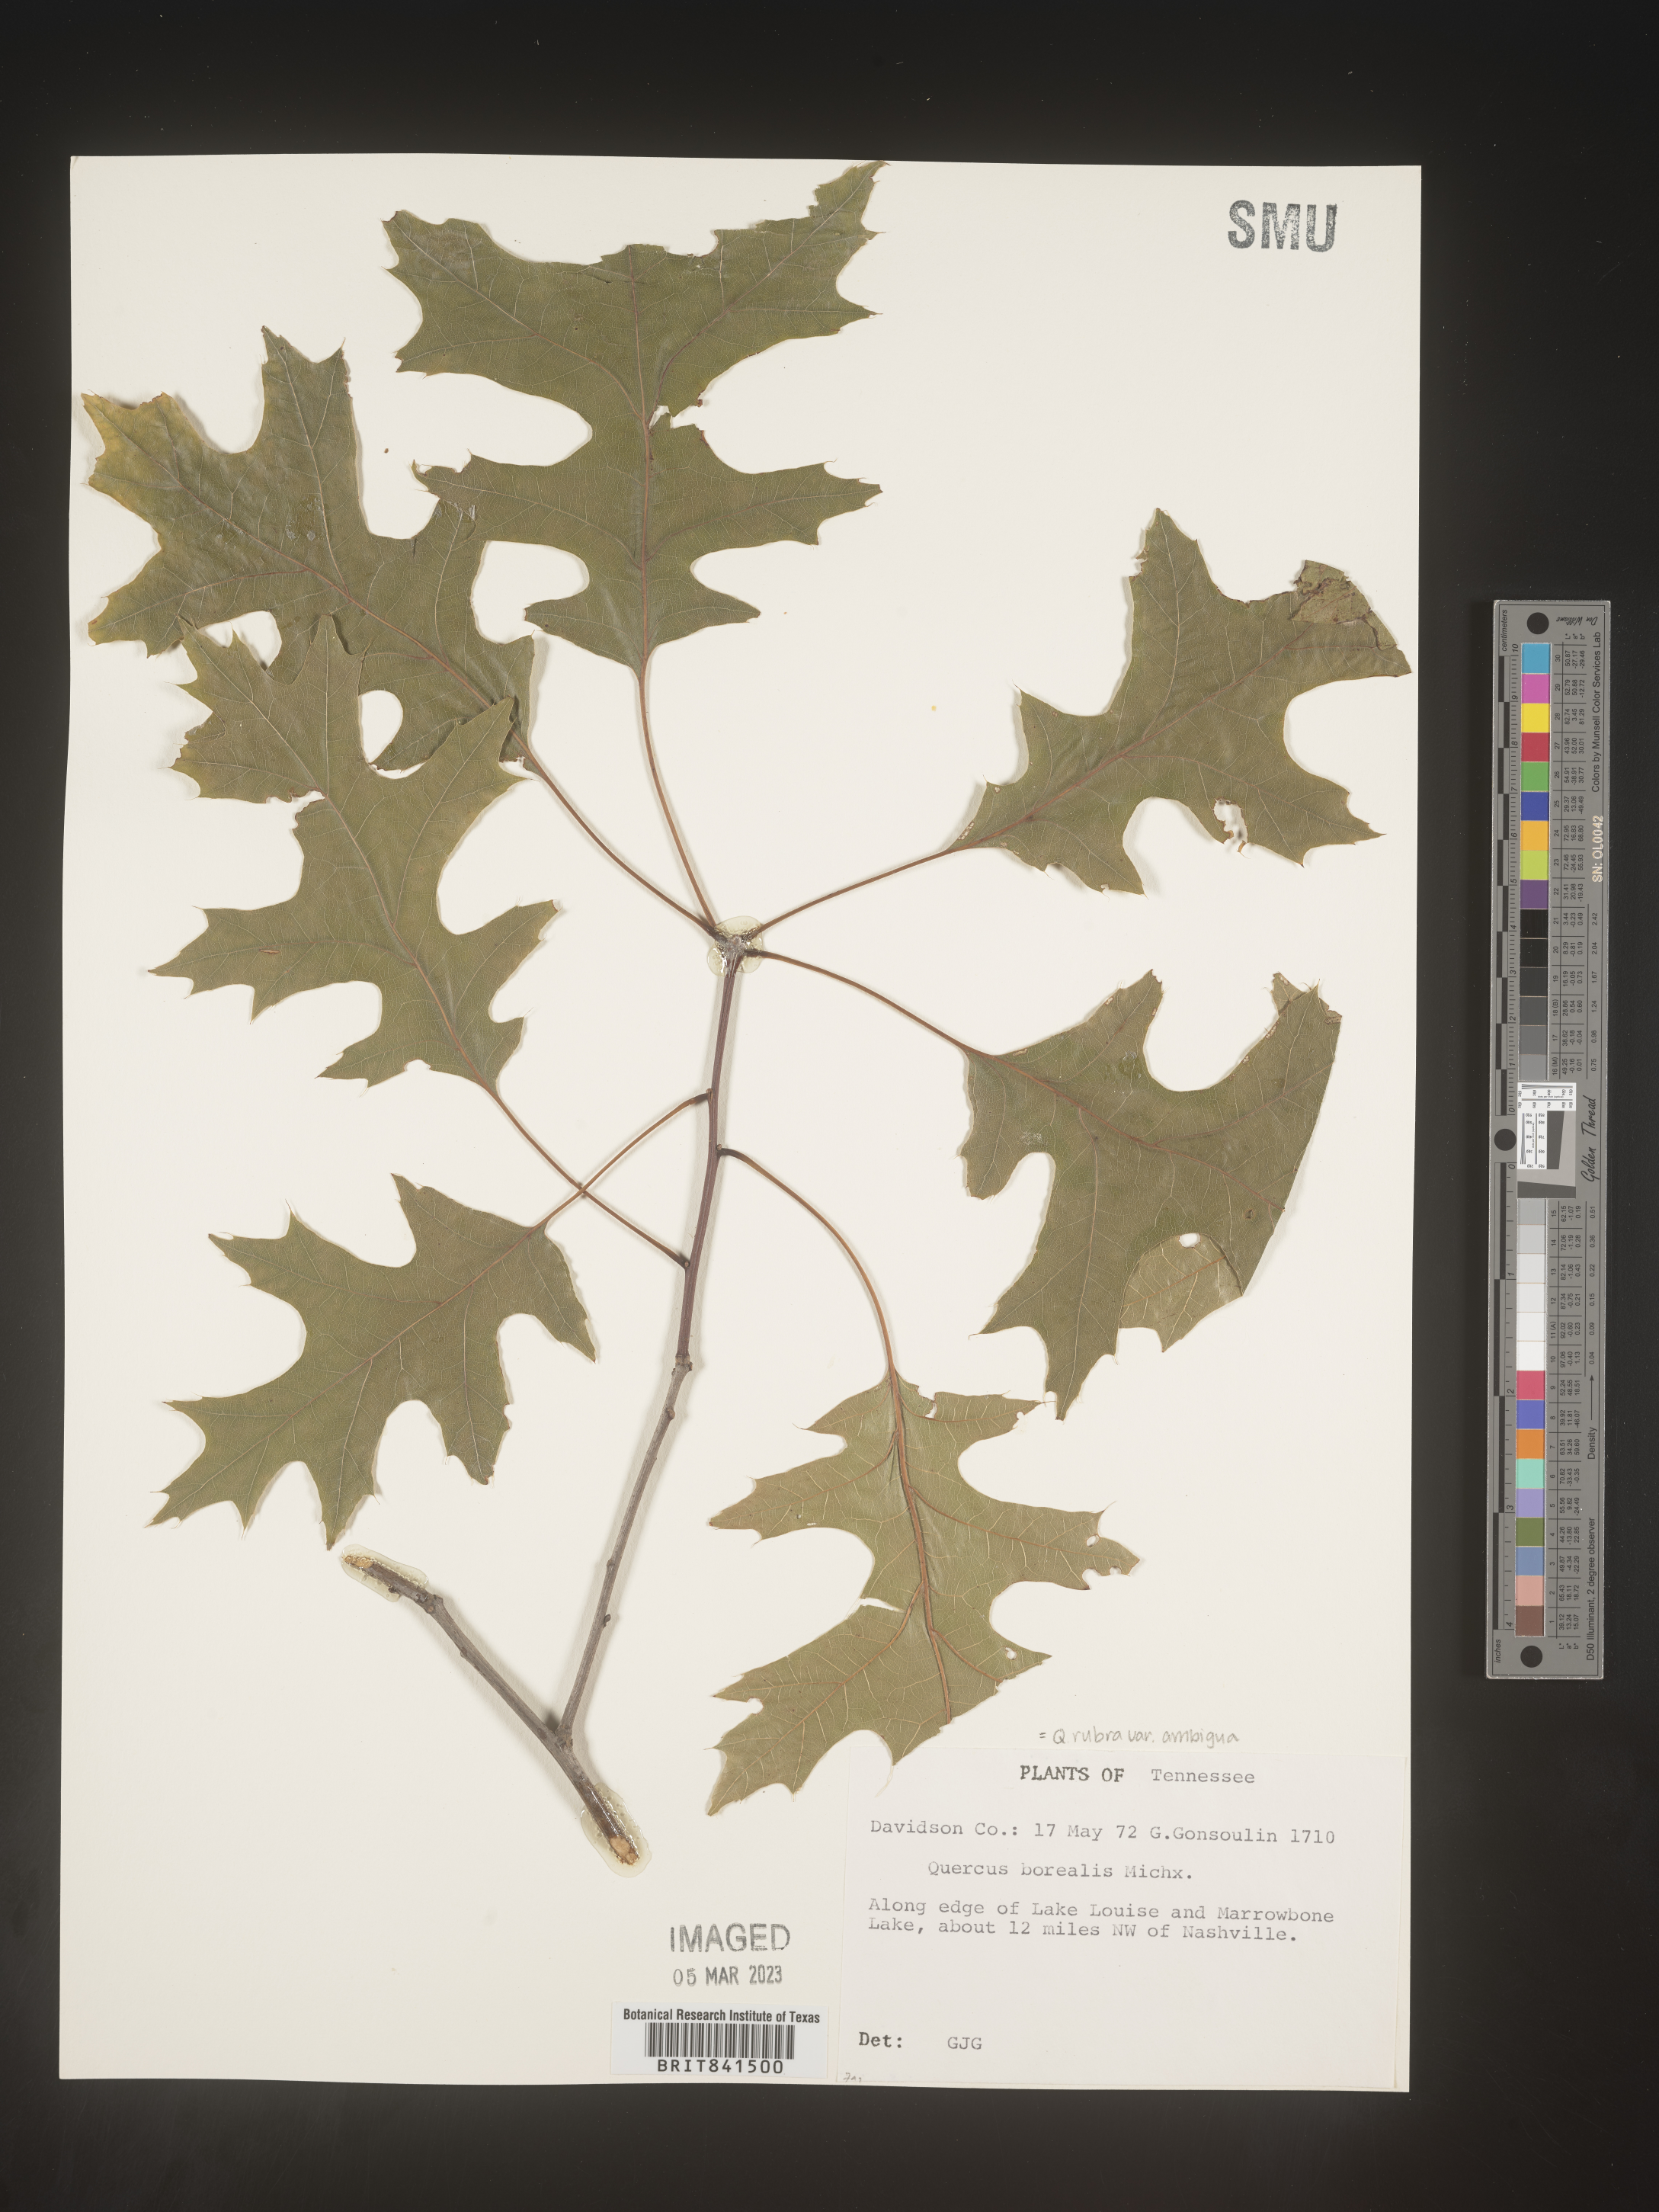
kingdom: Plantae
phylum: Tracheophyta
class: Magnoliopsida
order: Fagales
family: Fagaceae
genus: Quercus
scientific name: Quercus rubra
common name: Red oak
